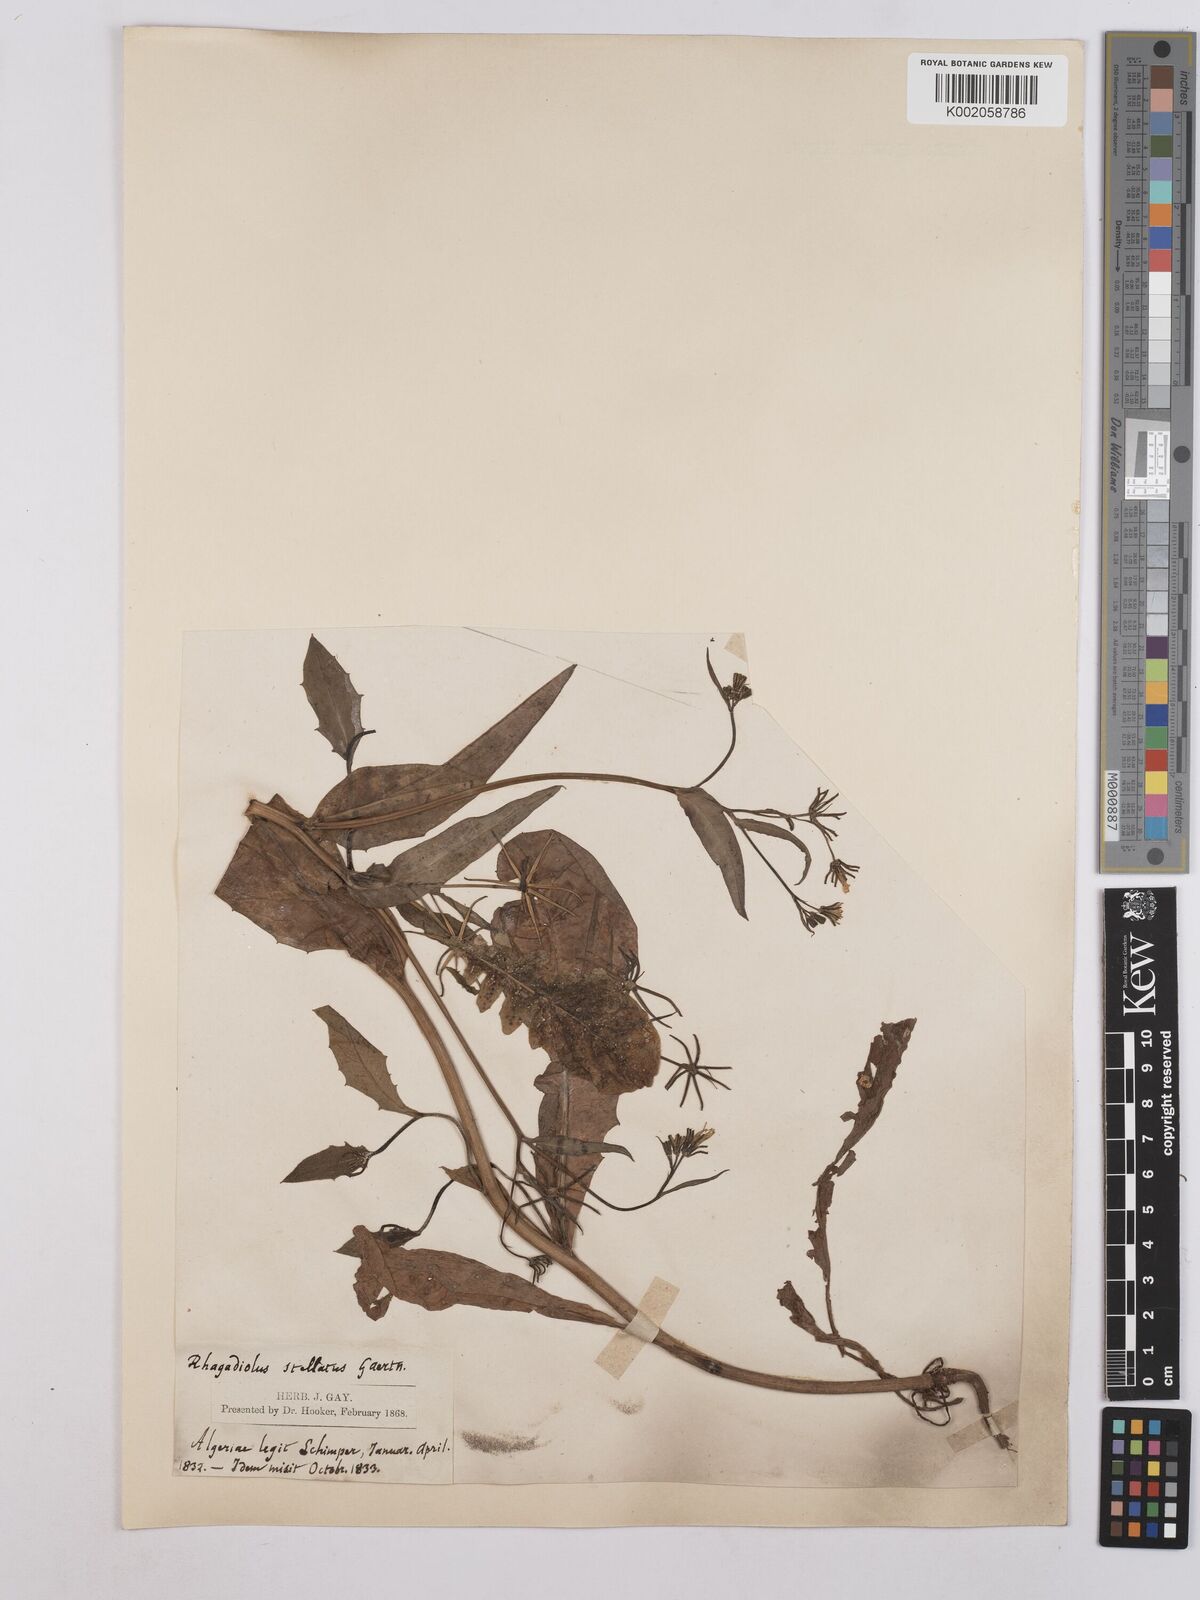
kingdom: Plantae
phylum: Tracheophyta
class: Magnoliopsida
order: Asterales
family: Asteraceae
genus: Rhagadiolus
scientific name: Rhagadiolus stellatus
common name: Star hawkbit
